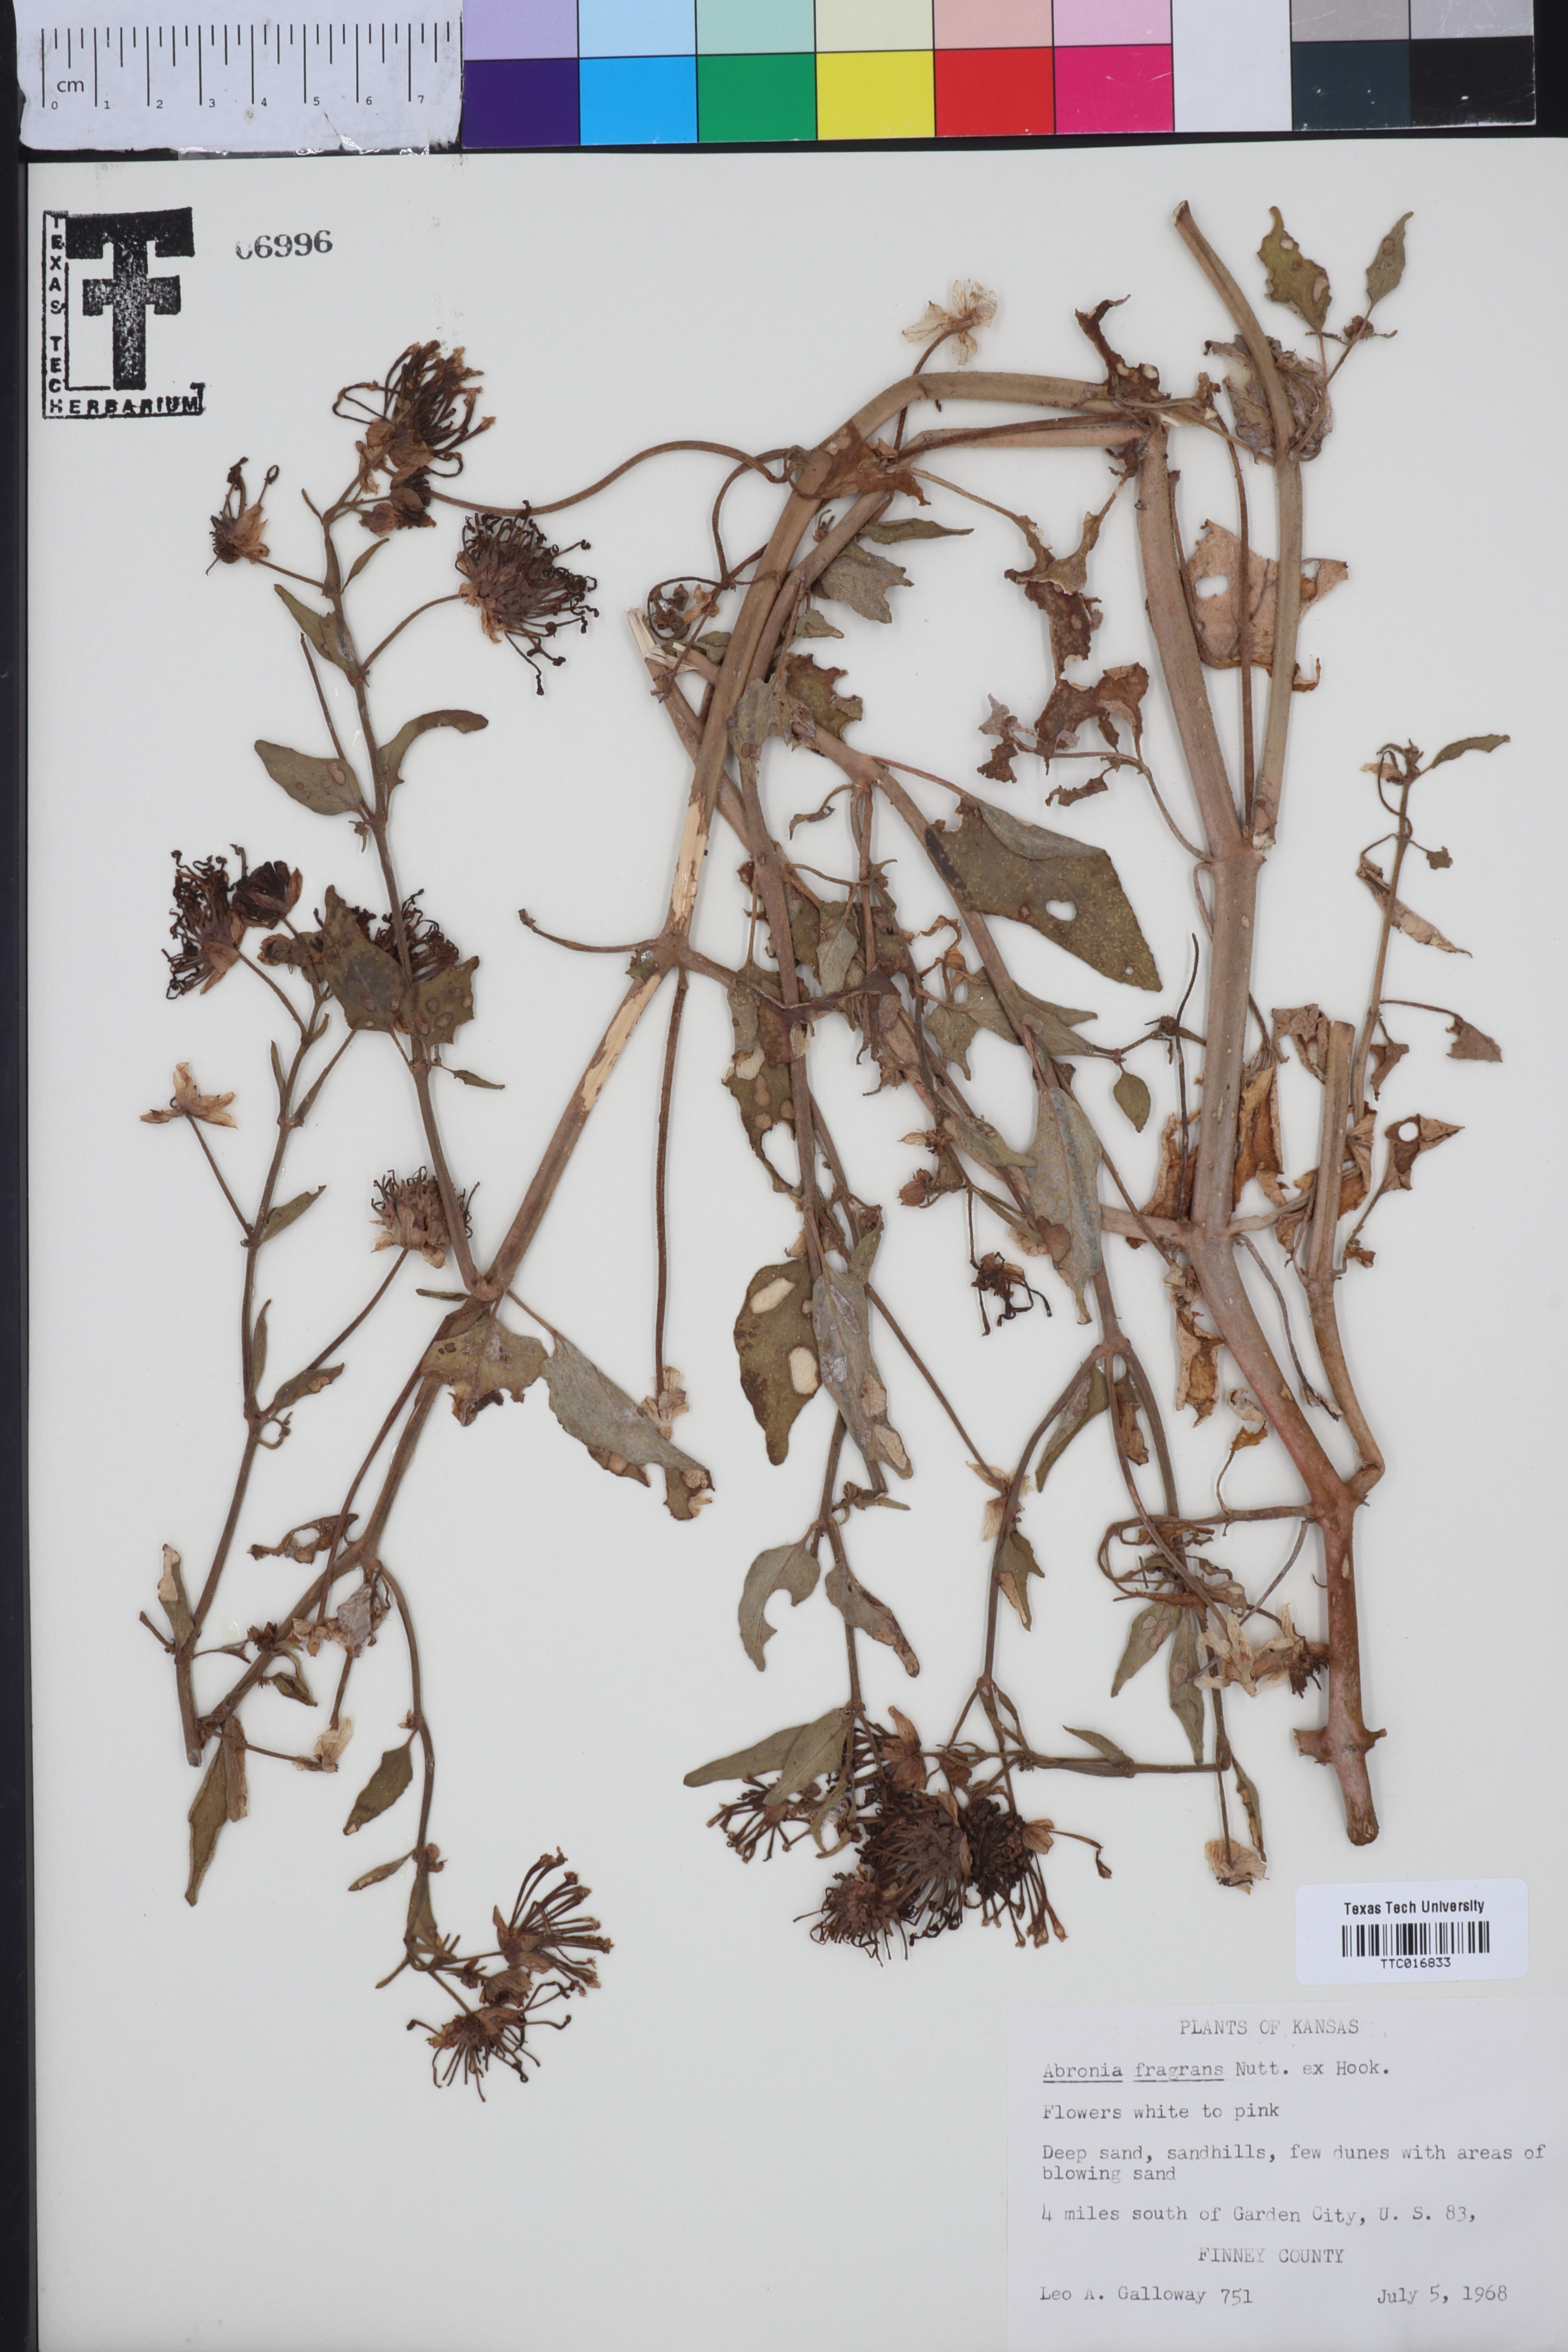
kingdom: Plantae
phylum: Tracheophyta
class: Magnoliopsida
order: Caryophyllales
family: Nyctaginaceae
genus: Abronia
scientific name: Abronia fragrans
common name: Fragrant sand-verbena
